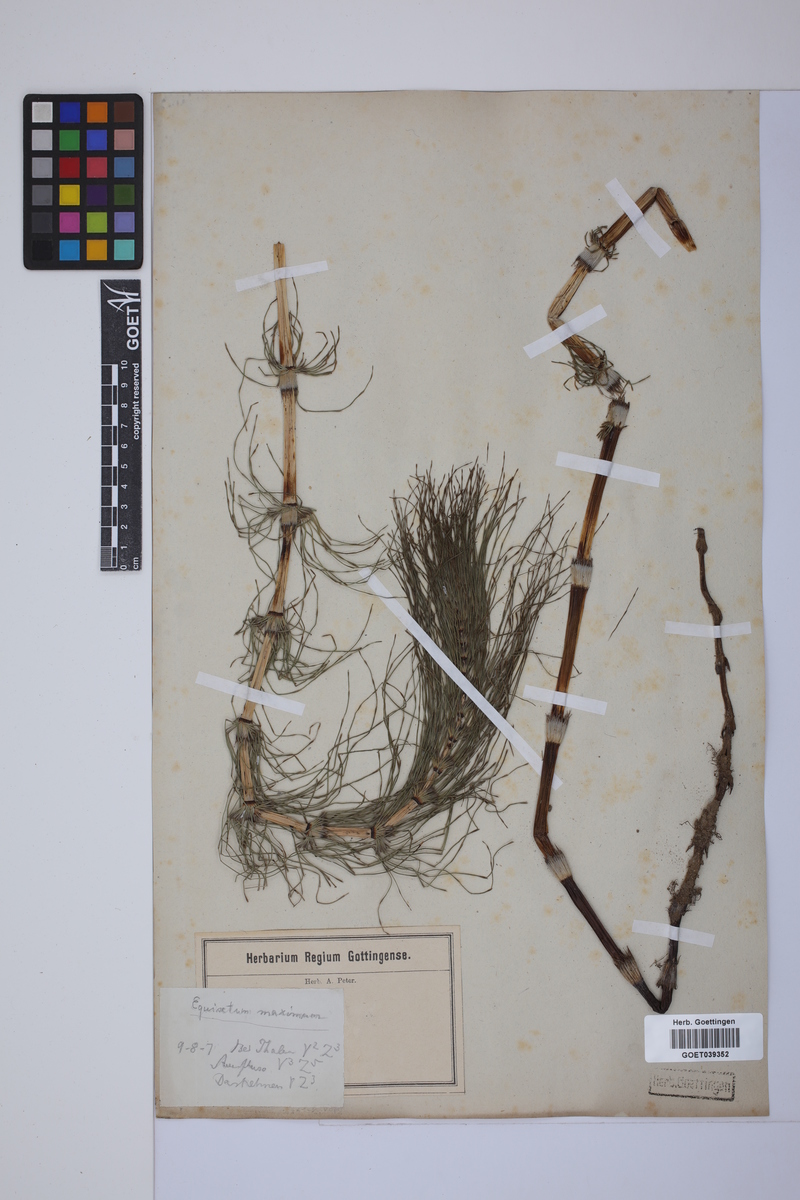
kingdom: Plantae
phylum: Tracheophyta
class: Polypodiopsida
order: Equisetales
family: Equisetaceae
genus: Equisetum
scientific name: Equisetum telmateia
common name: Great horsetail
